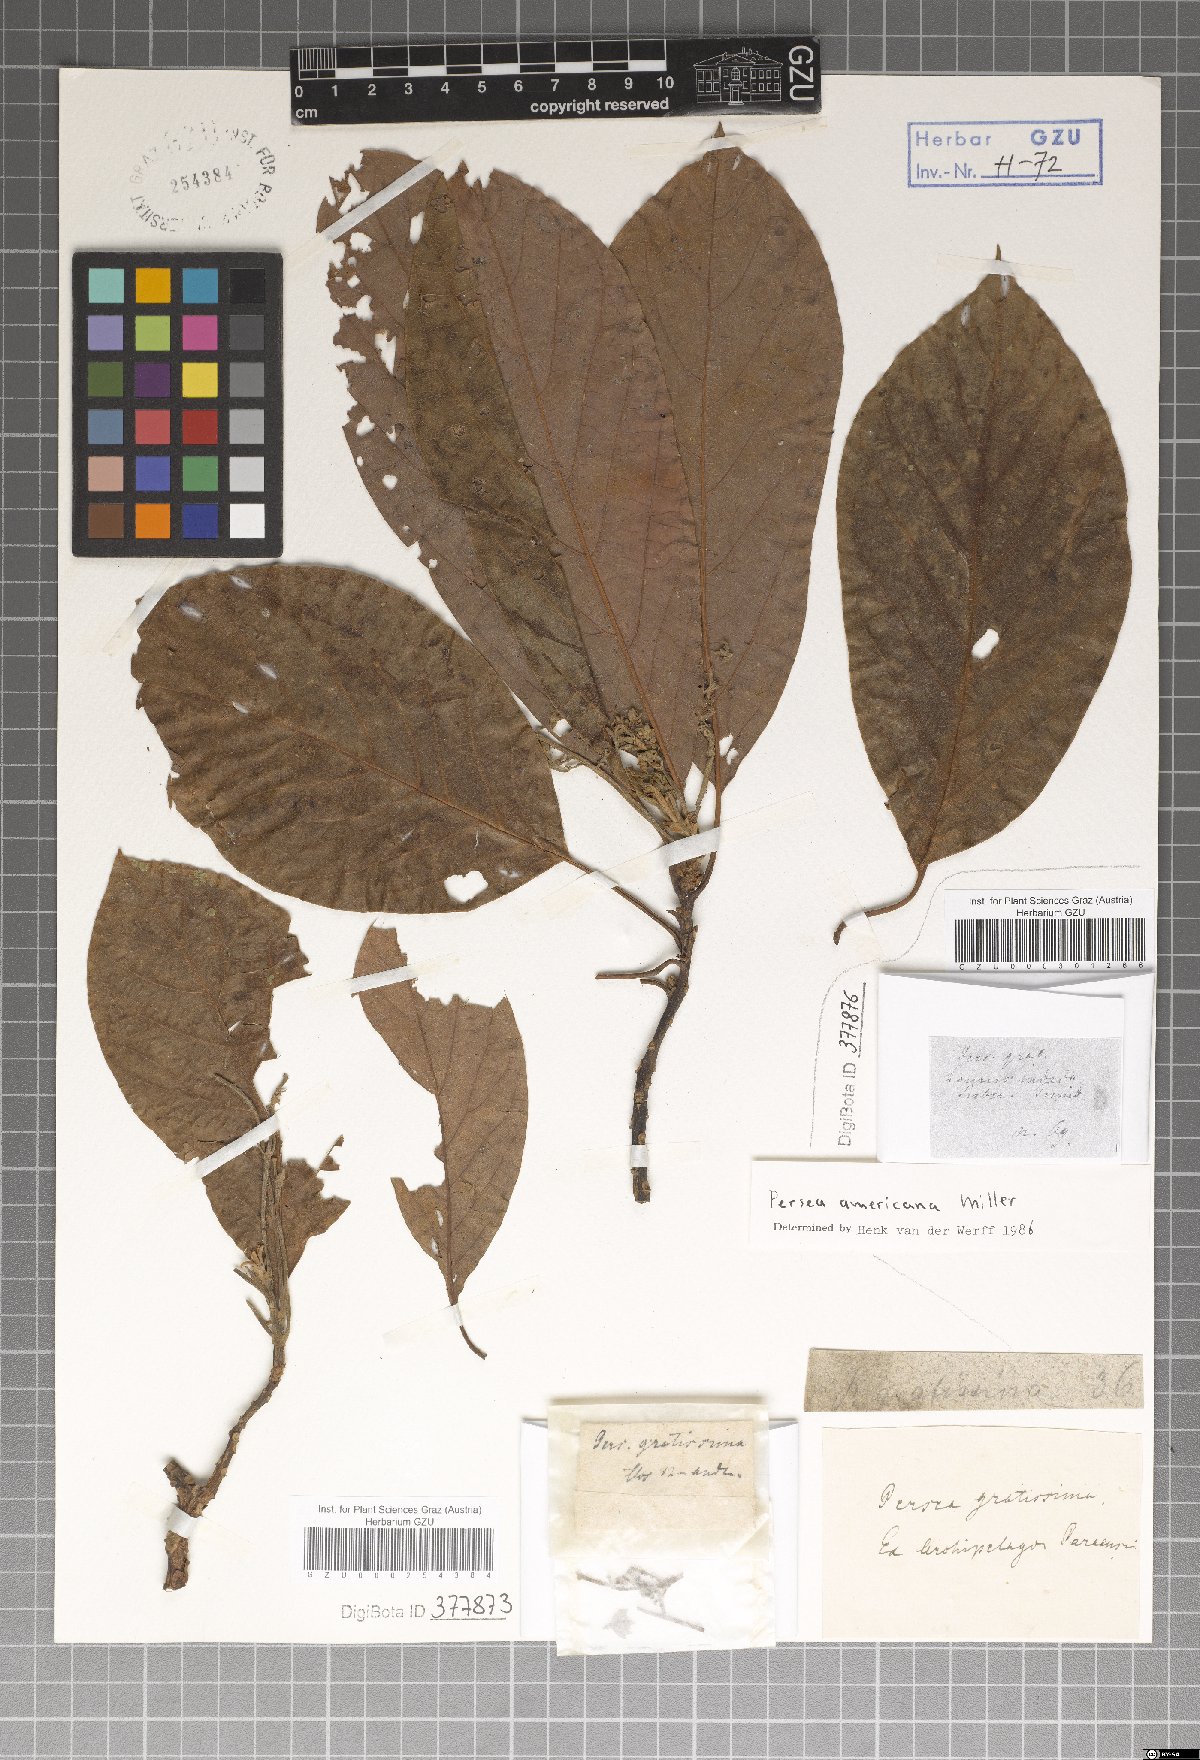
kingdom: Plantae
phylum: Tracheophyta
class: Magnoliopsida
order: Laurales
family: Lauraceae
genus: Persea
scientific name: Persea americana
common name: Avocado
